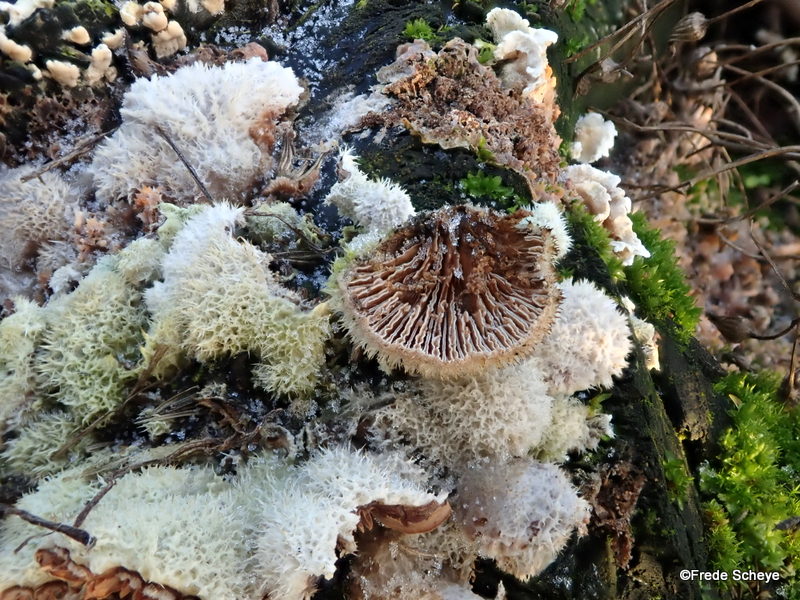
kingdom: Fungi
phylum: Basidiomycota
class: Agaricomycetes
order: Agaricales
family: Schizophyllaceae
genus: Schizophyllum
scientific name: Schizophyllum commune
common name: kløvblad
